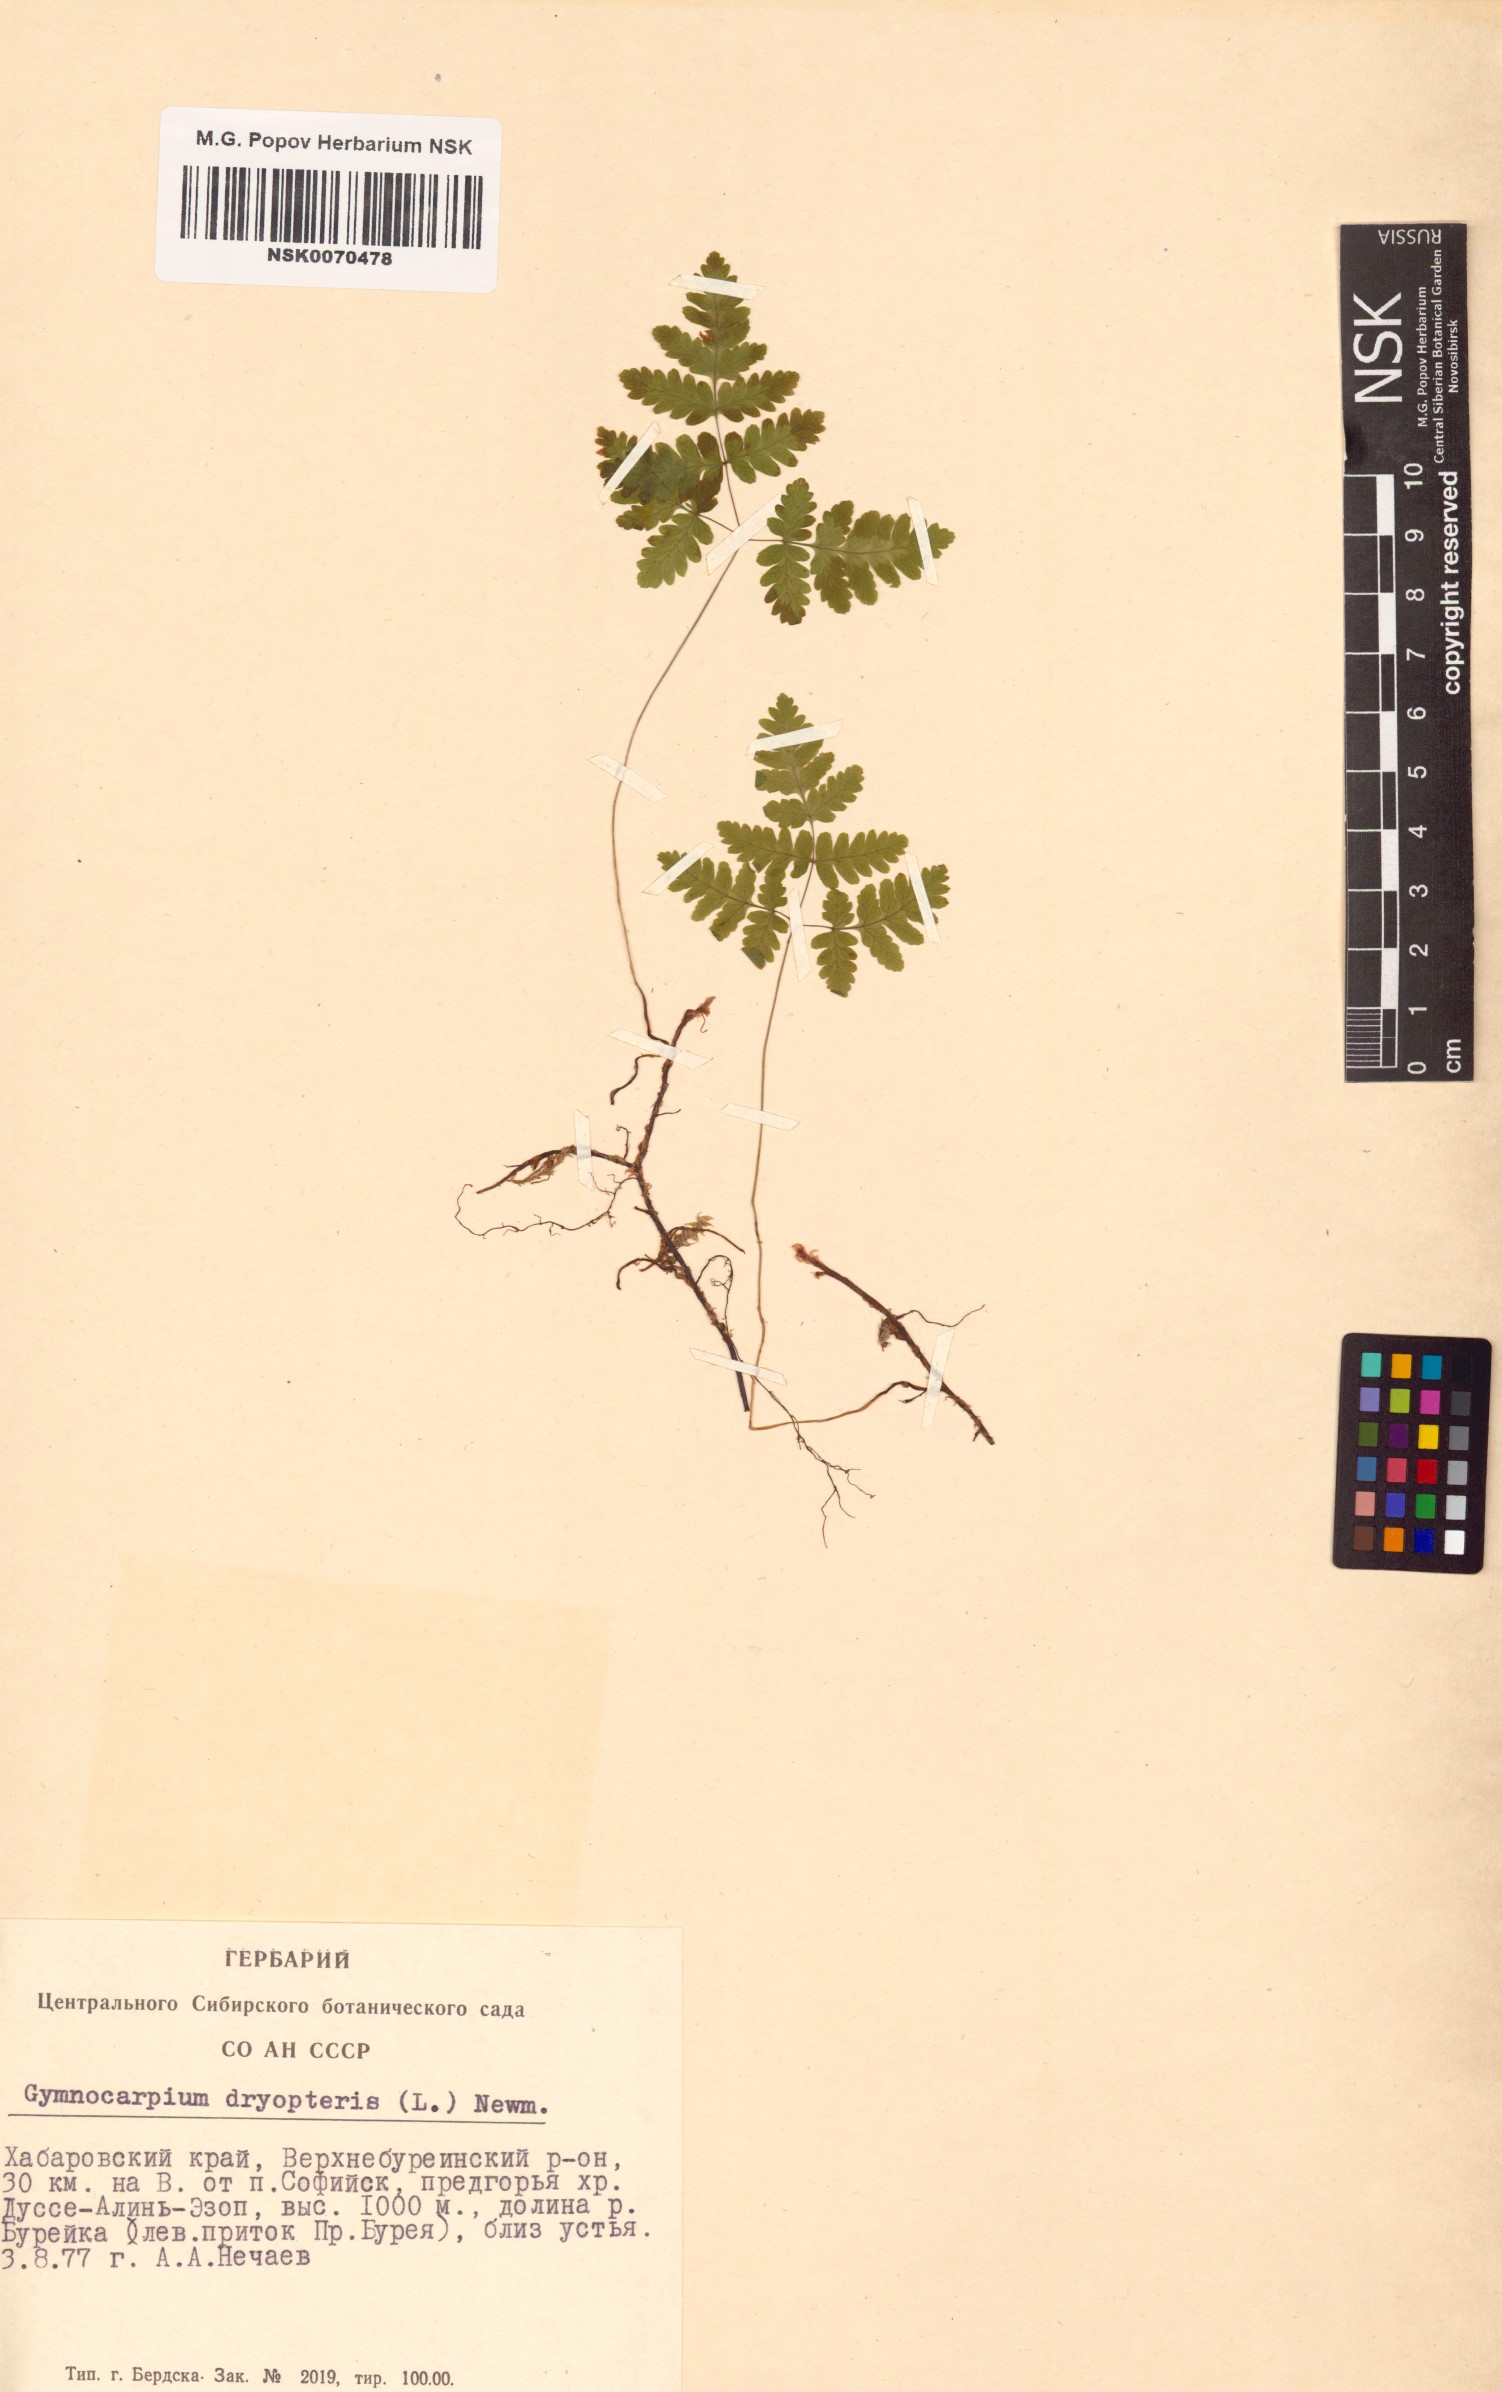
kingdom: Plantae
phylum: Tracheophyta
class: Polypodiopsida
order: Polypodiales
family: Cystopteridaceae
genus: Gymnocarpium
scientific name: Gymnocarpium dryopteris
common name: Oak fern
